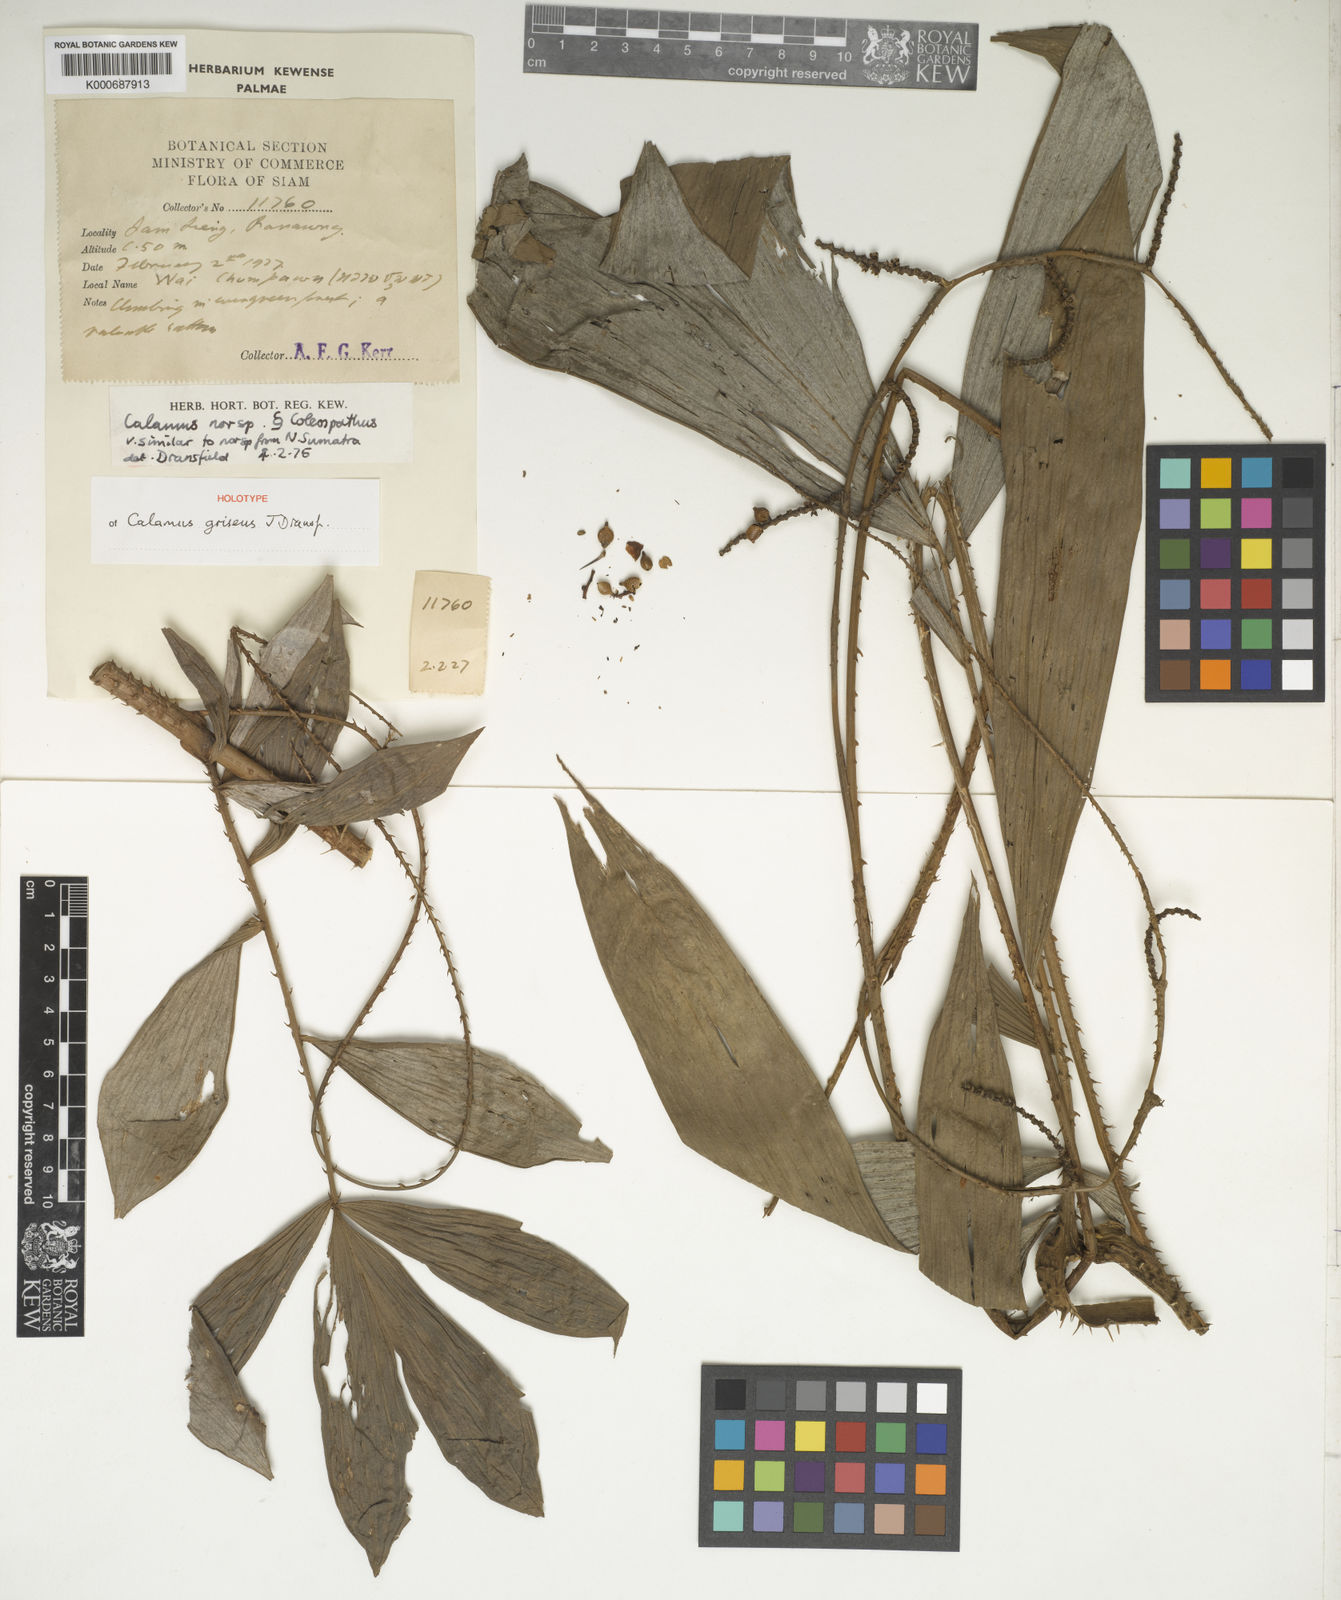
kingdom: Plantae
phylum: Tracheophyta
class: Liliopsida
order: Arecales
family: Arecaceae
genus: Calamus
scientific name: Calamus griseus
